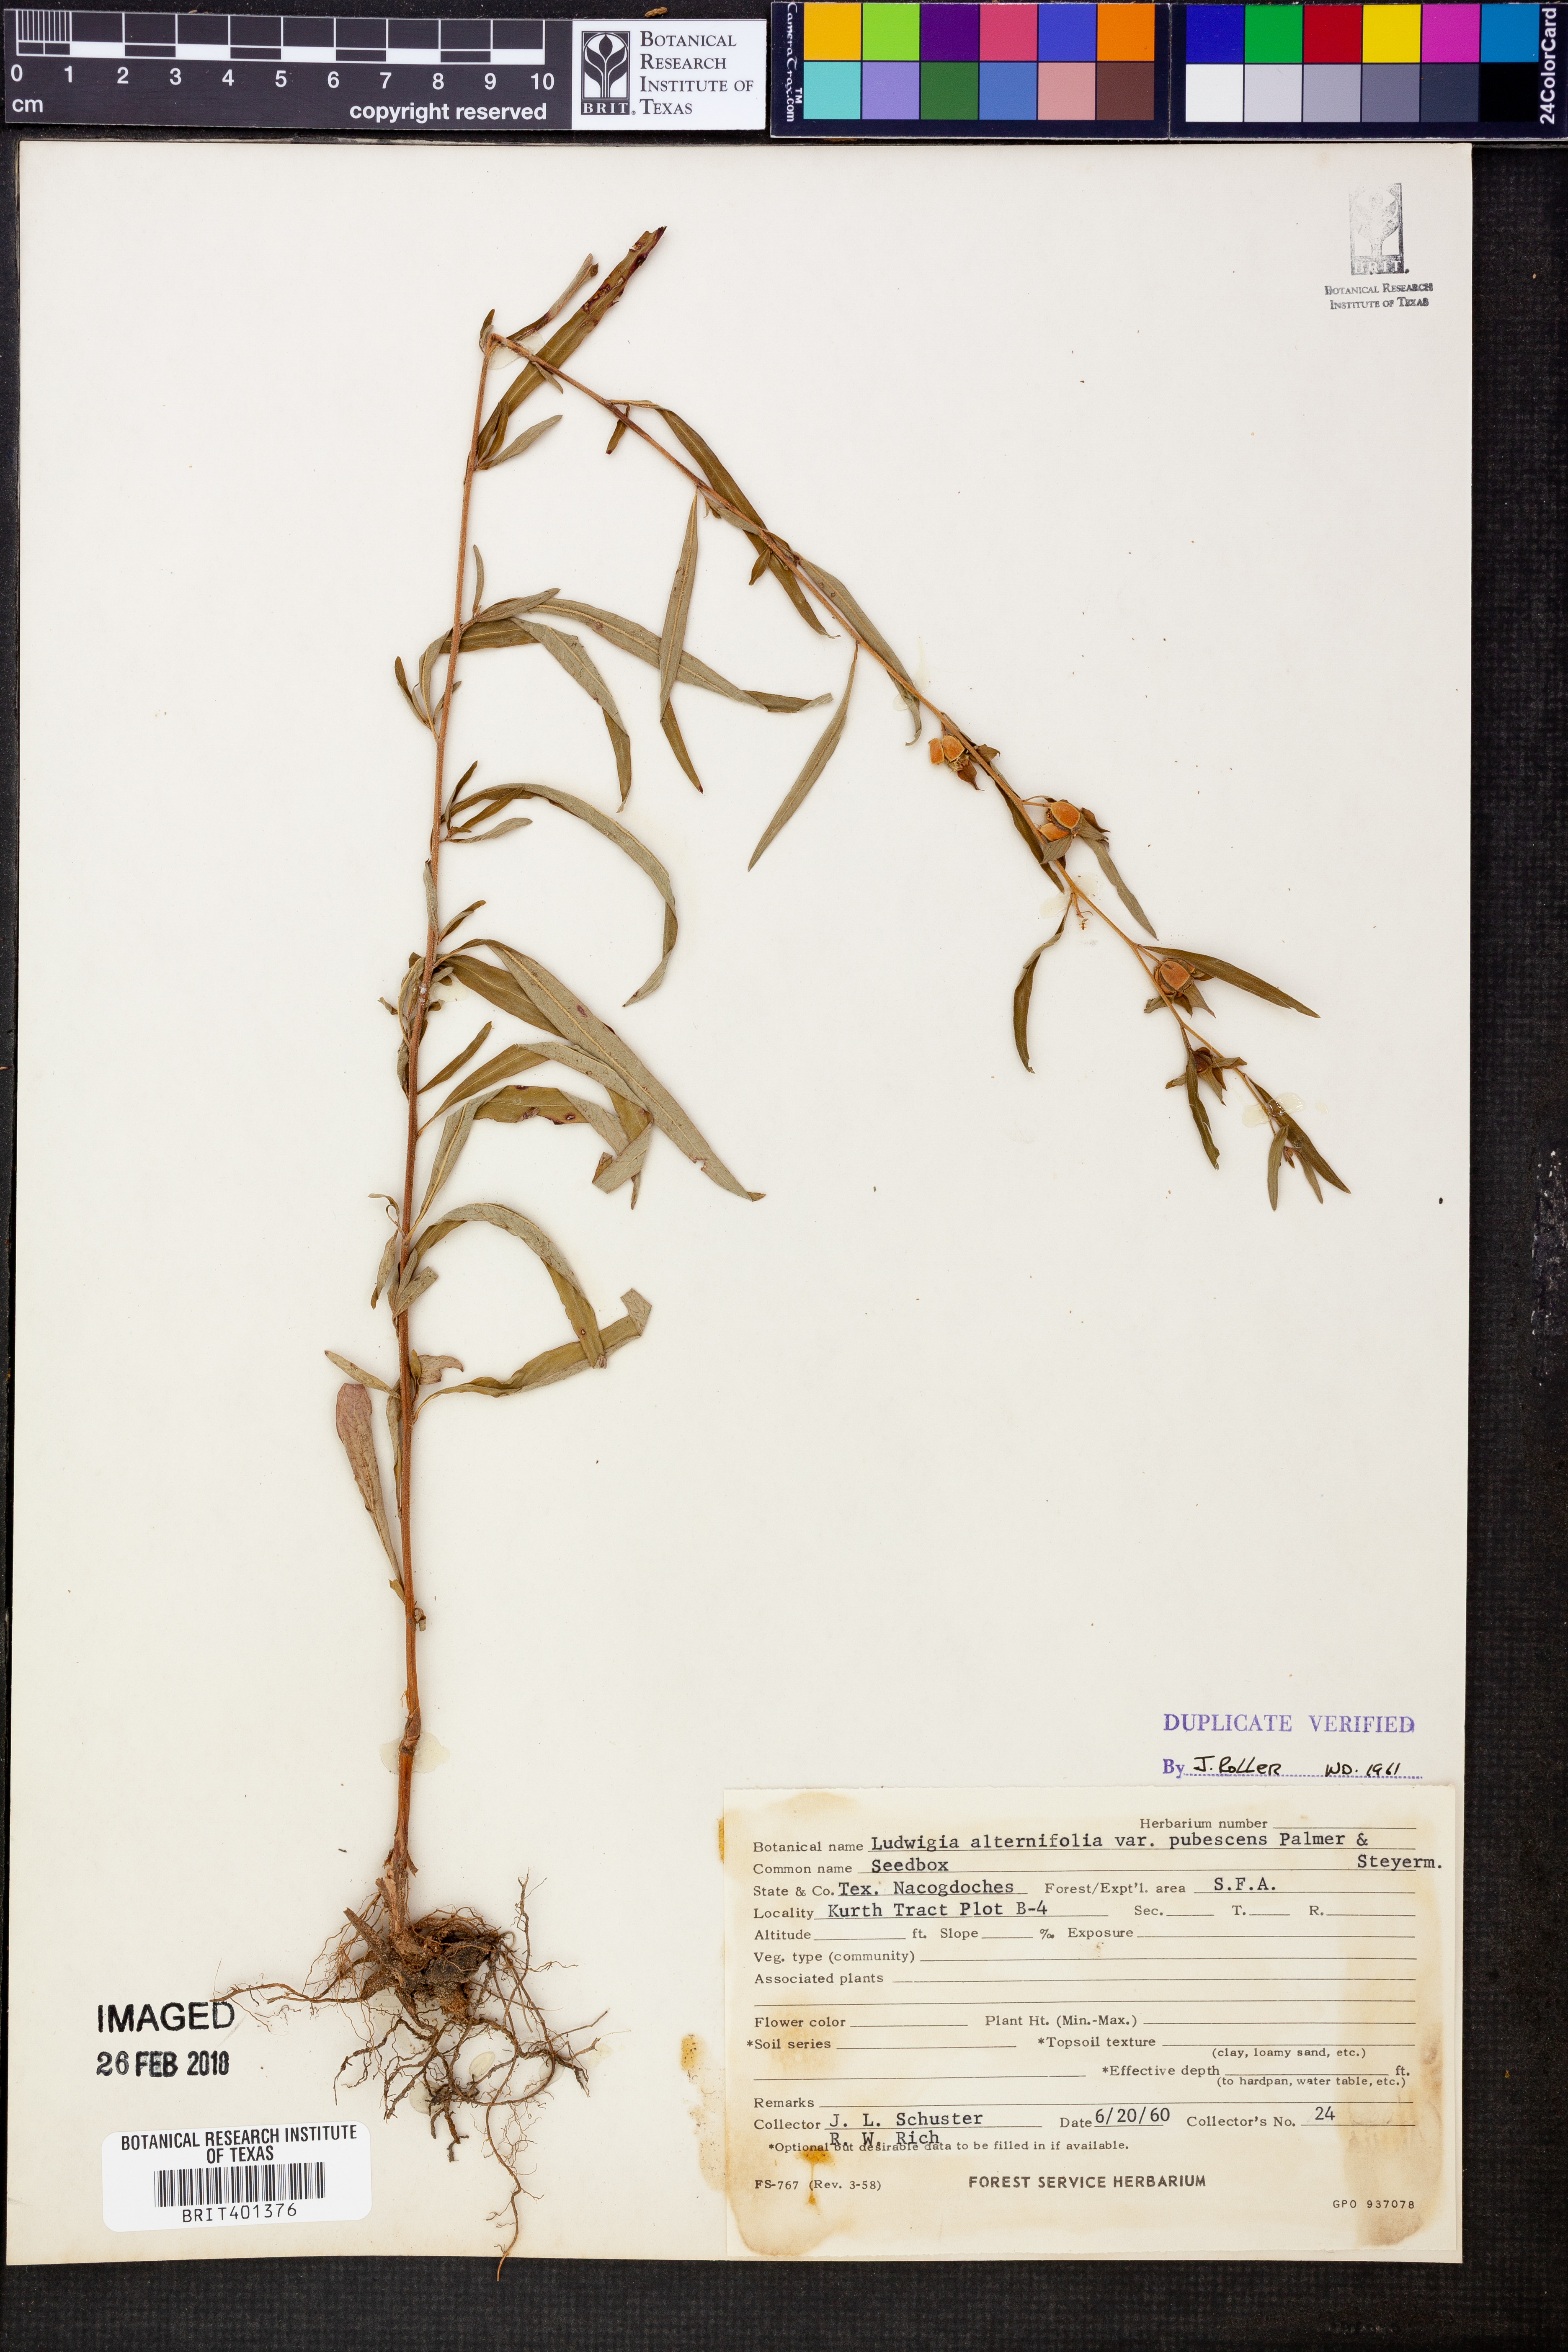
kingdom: Plantae
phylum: Tracheophyta
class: Magnoliopsida
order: Myrtales
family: Onagraceae
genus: Ludwigia
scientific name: Ludwigia alternifolia
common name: Rattlebox
